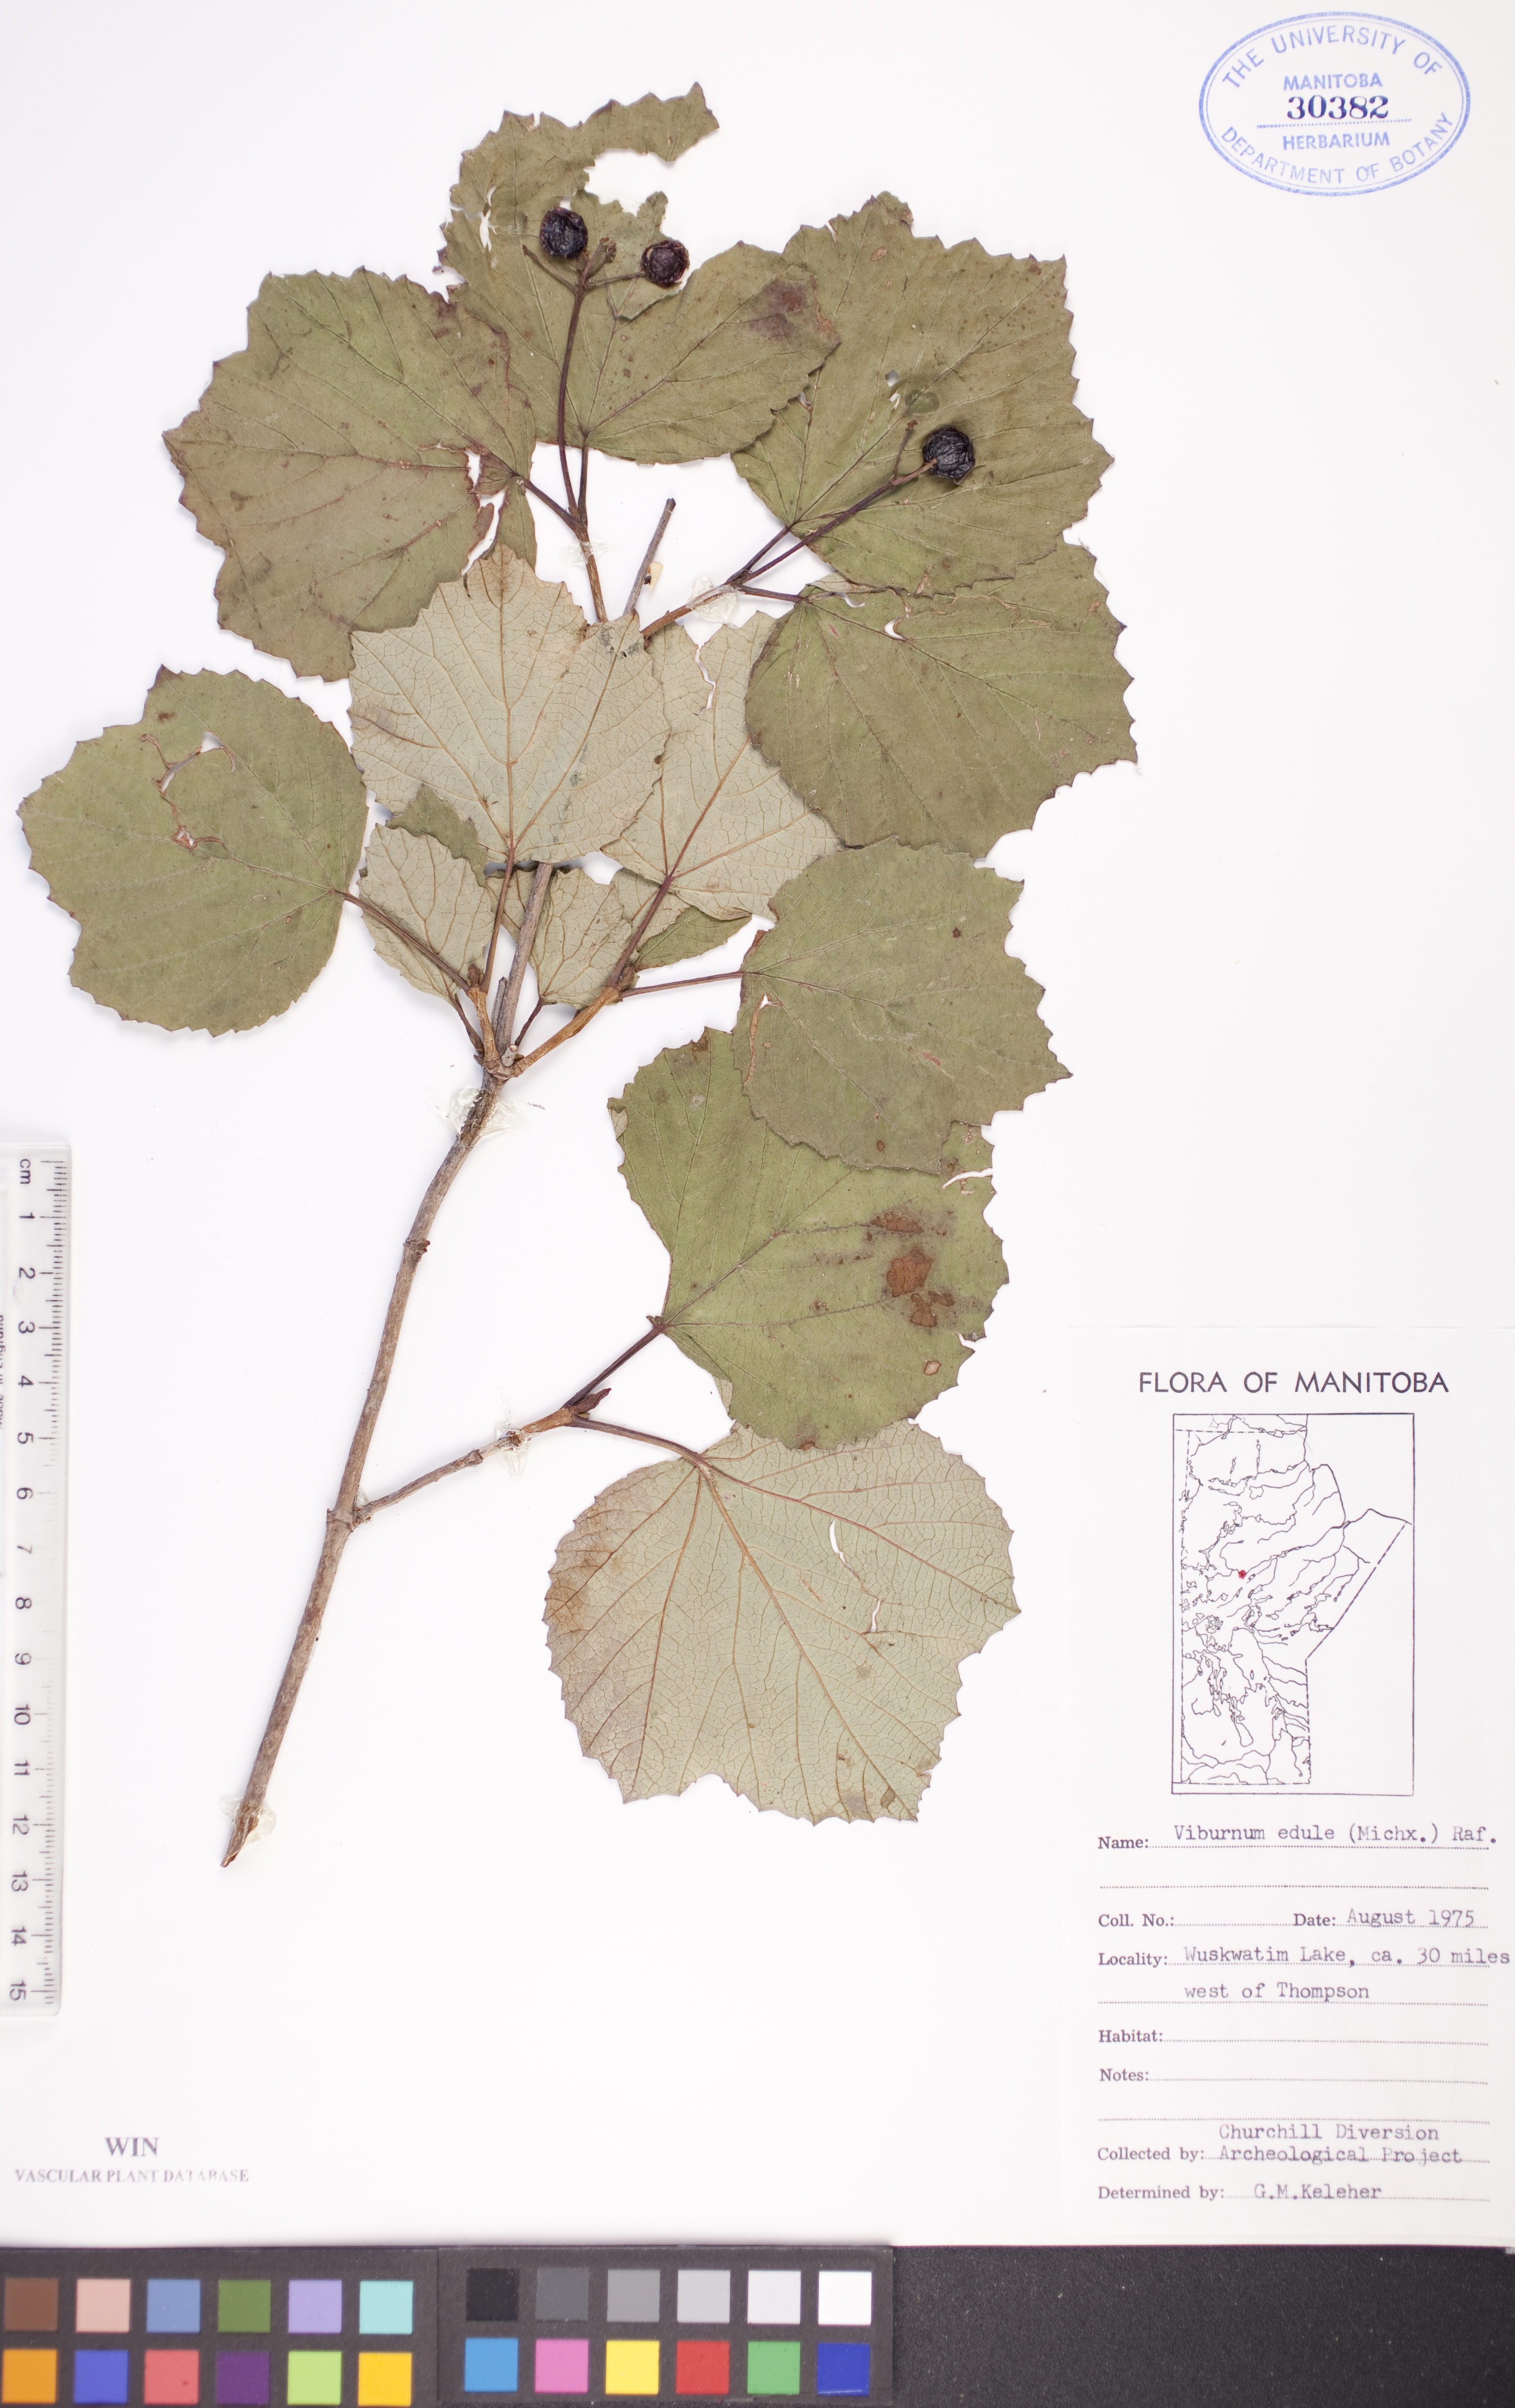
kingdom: Plantae
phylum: Tracheophyta
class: Magnoliopsida
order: Dipsacales
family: Viburnaceae
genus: Viburnum
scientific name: Viburnum edule
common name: Mooseberry
